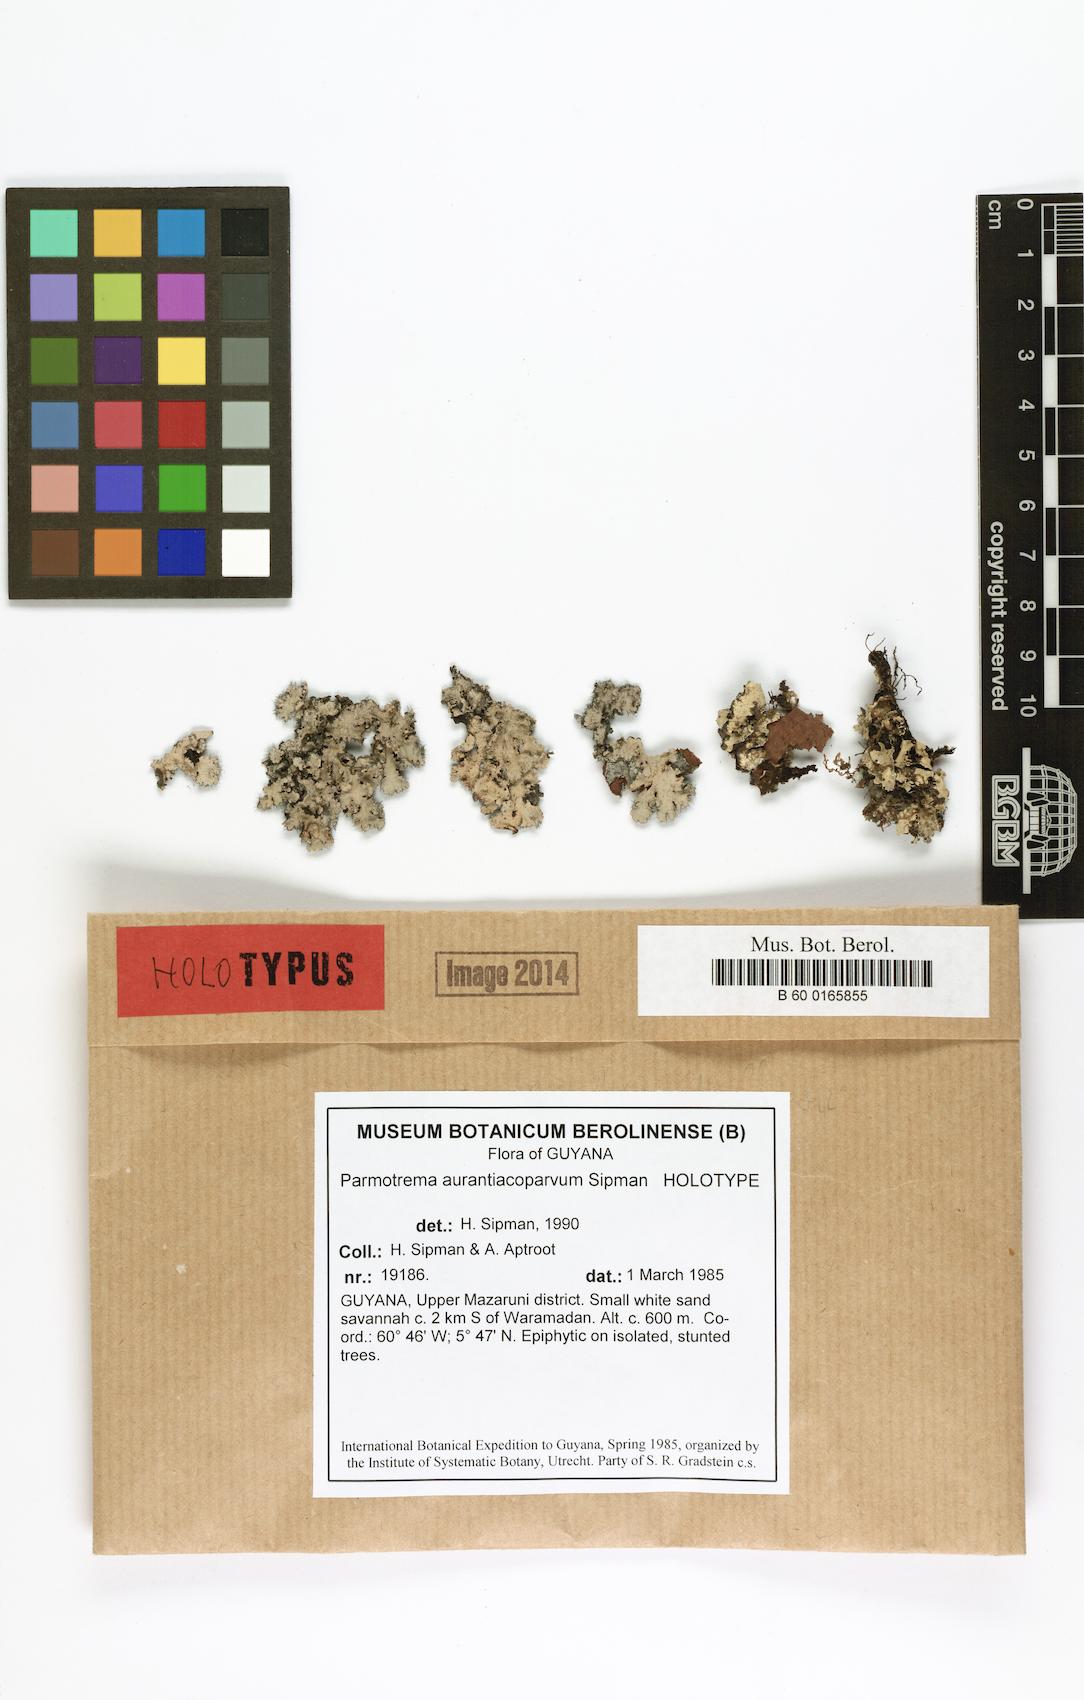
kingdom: Fungi
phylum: Ascomycota
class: Lecanoromycetes
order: Lecanorales
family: Parmeliaceae
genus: Parmotrema
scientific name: Parmotrema aurantiacoparvum
